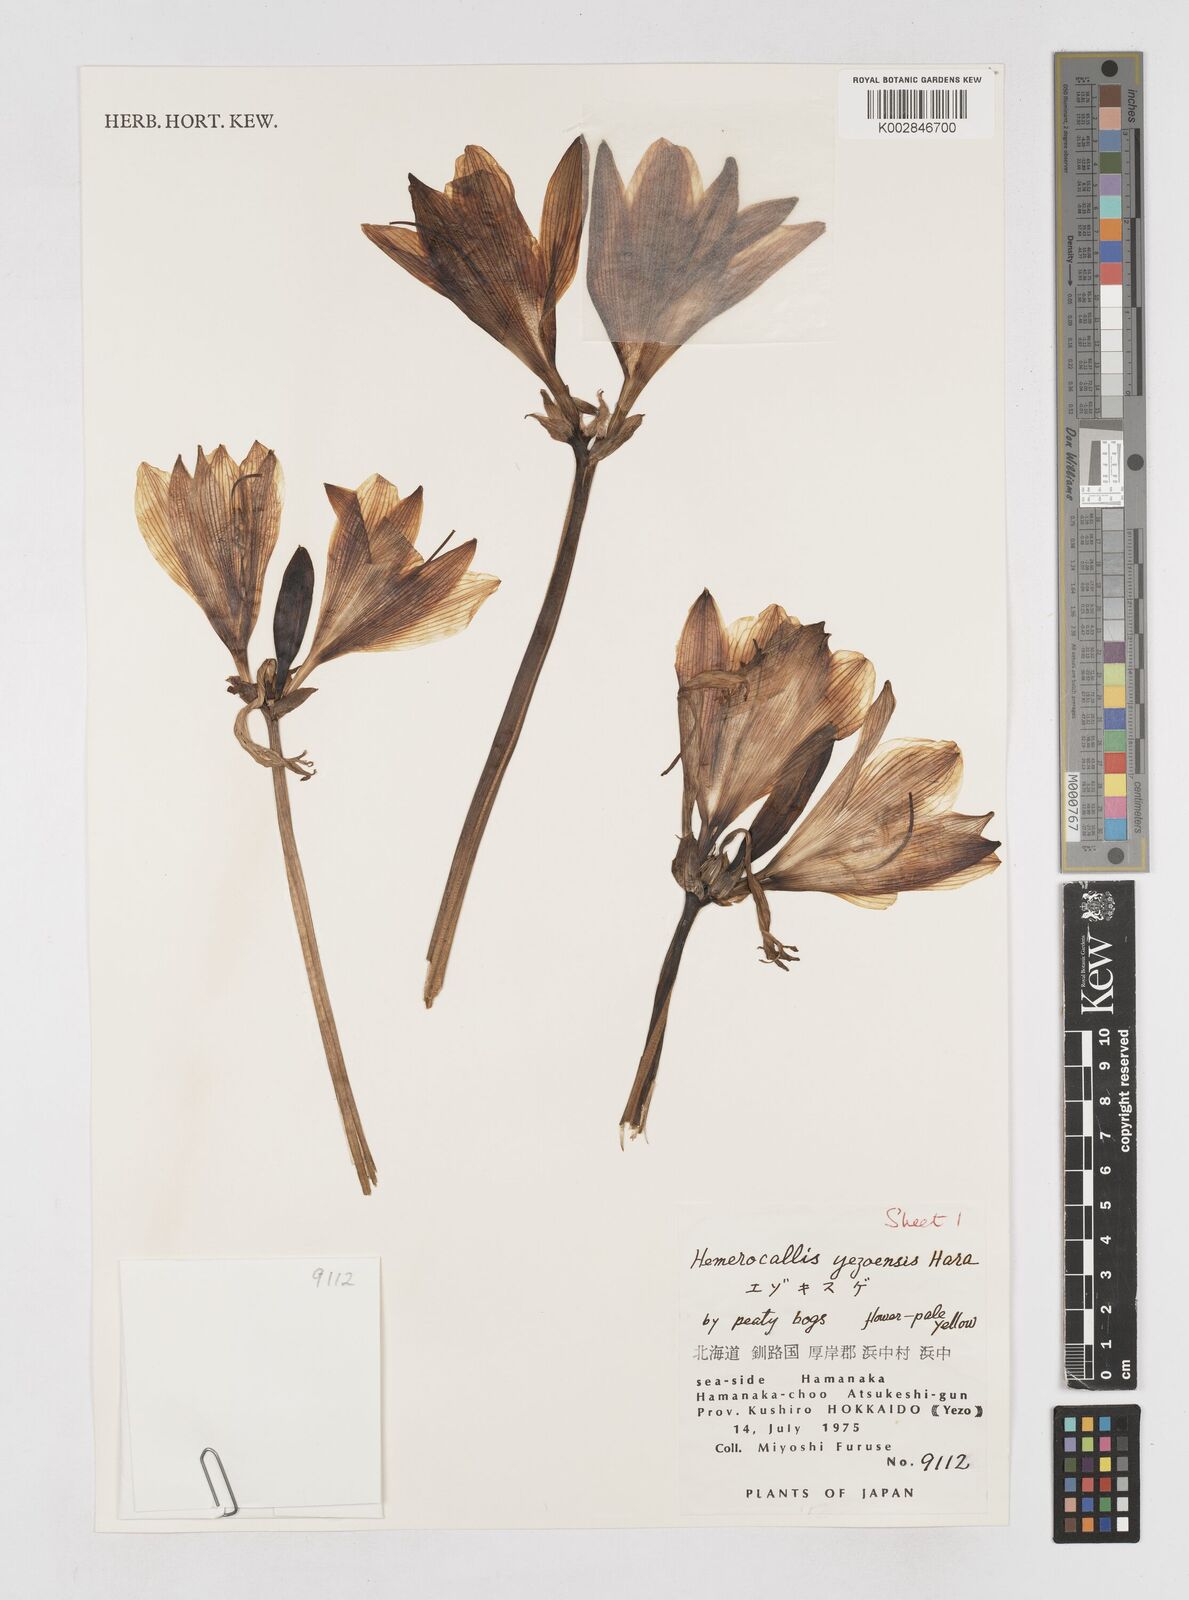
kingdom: Plantae
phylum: Tracheophyta
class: Liliopsida
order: Asparagales
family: Asphodelaceae
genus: Hemerocallis
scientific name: Hemerocallis yezoensis
